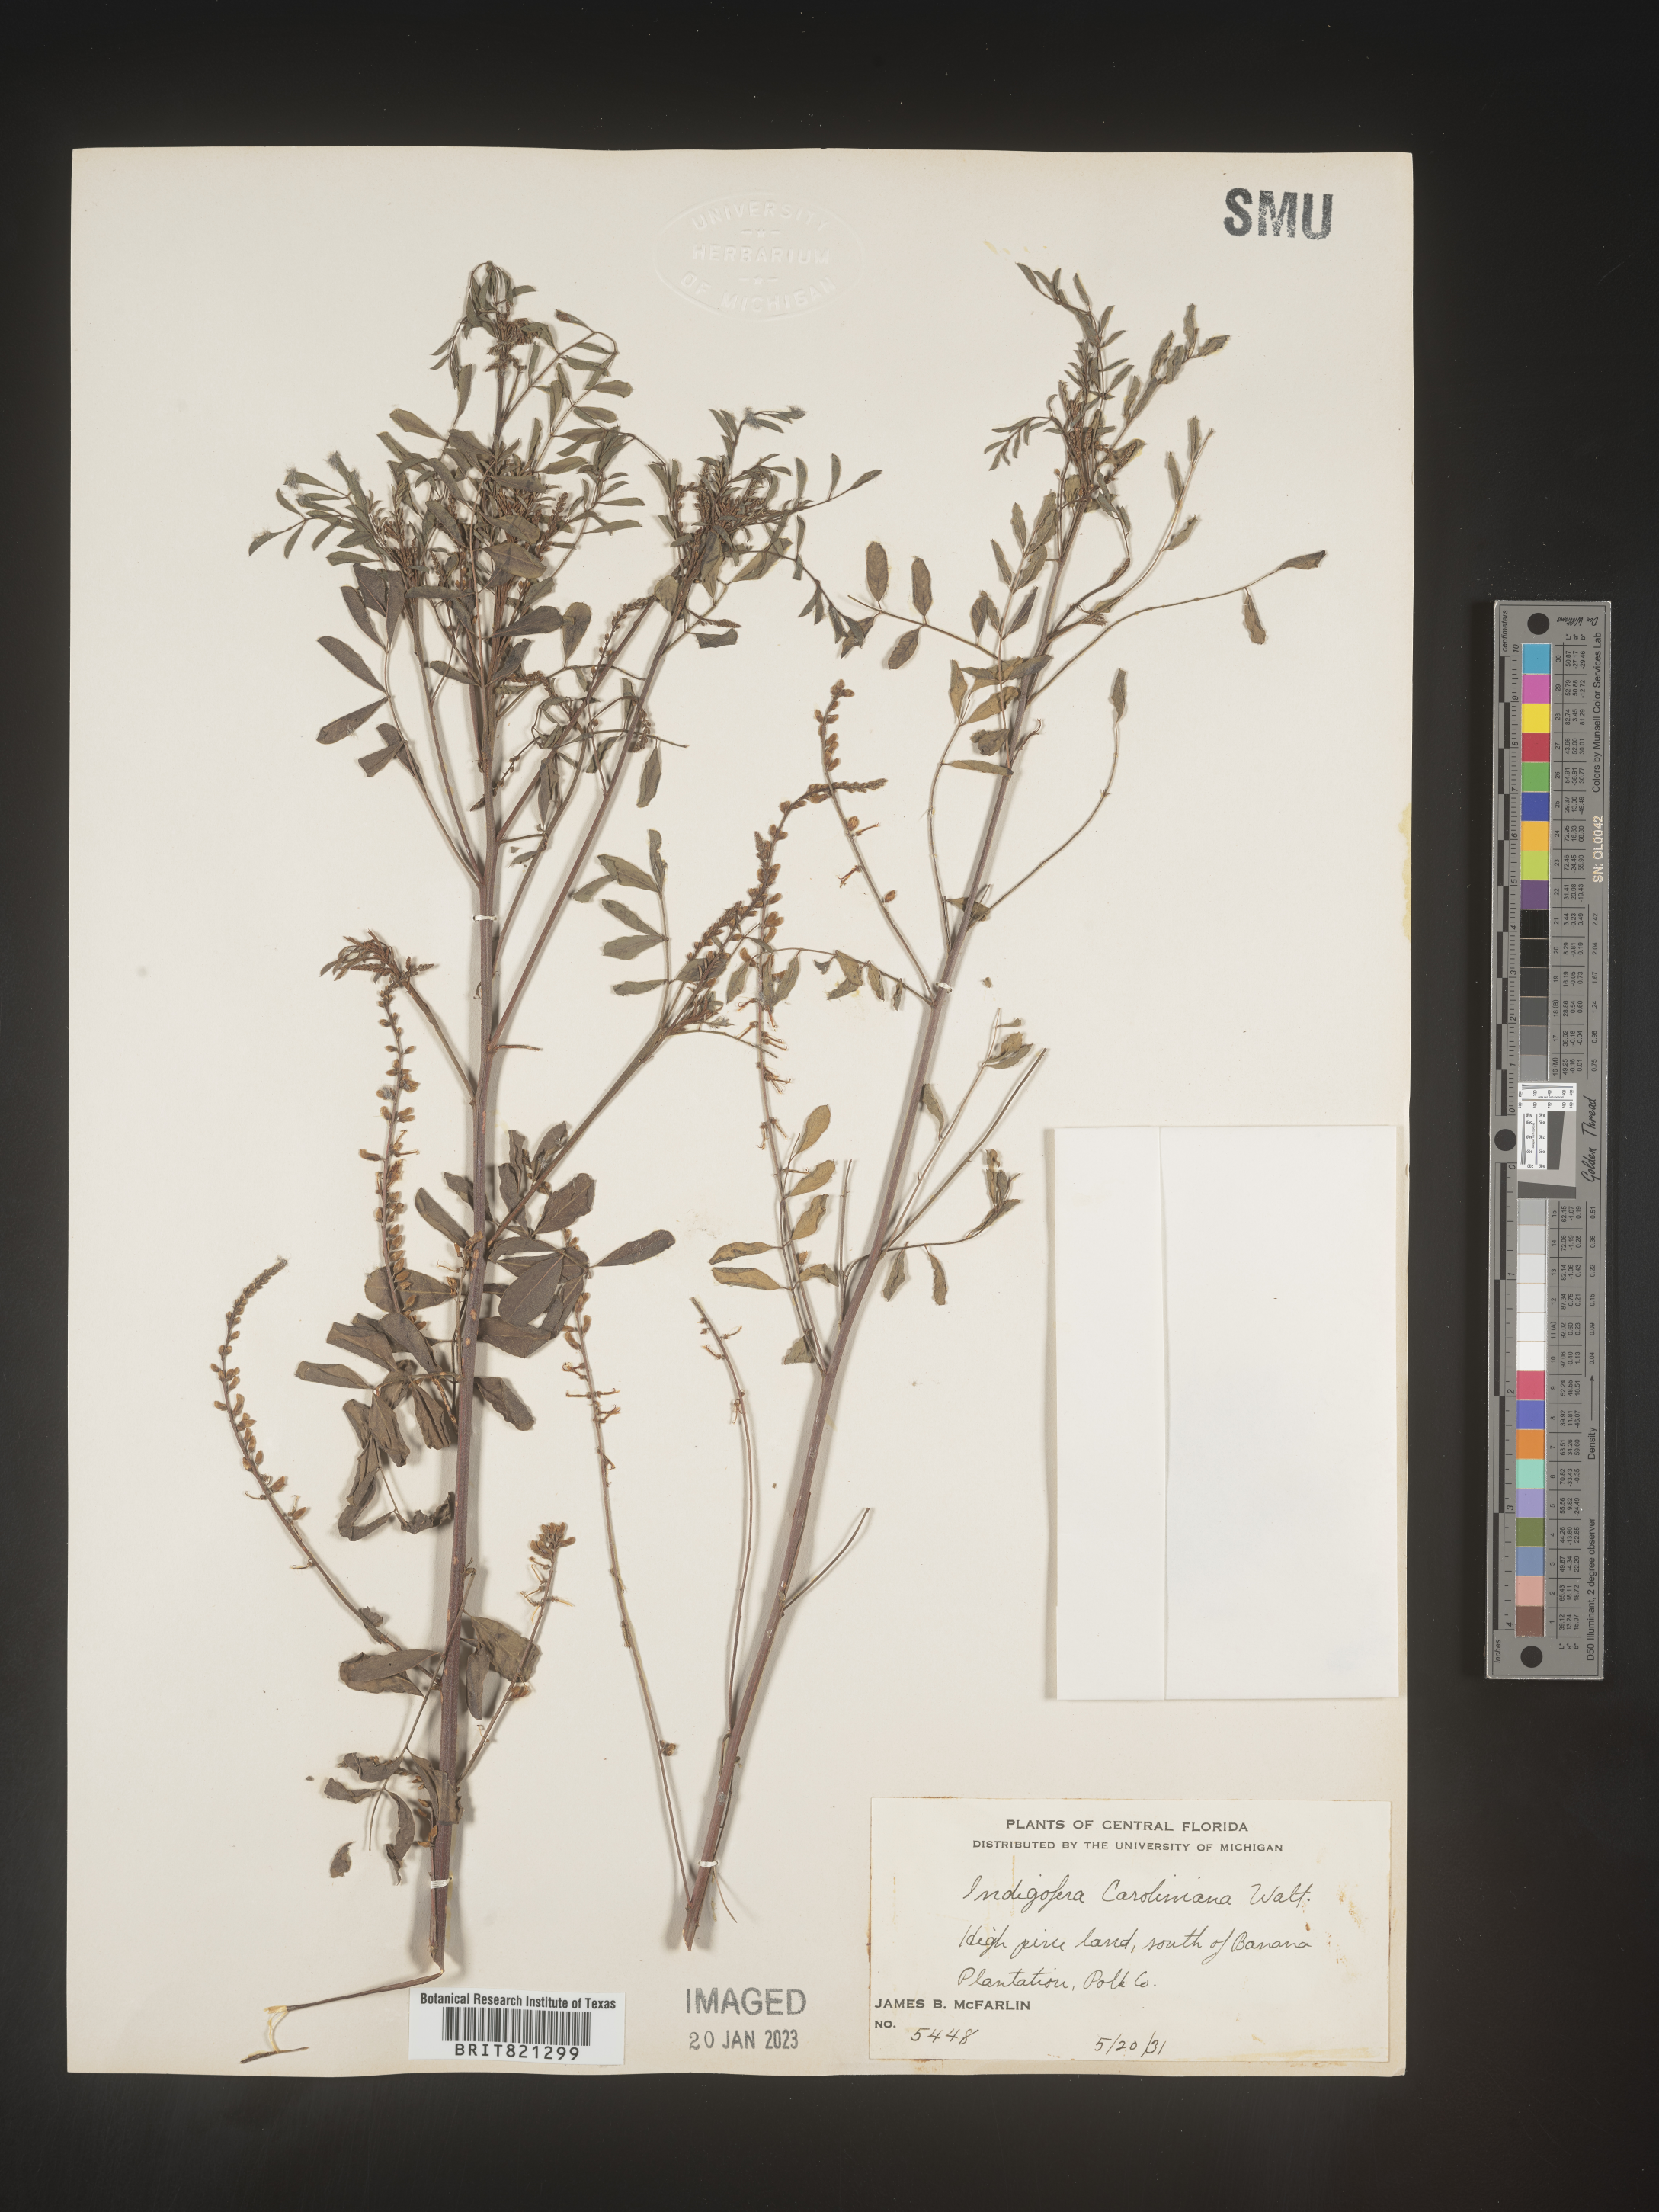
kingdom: Plantae
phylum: Tracheophyta
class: Magnoliopsida
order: Fabales
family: Fabaceae
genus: Indigofera
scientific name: Indigofera
